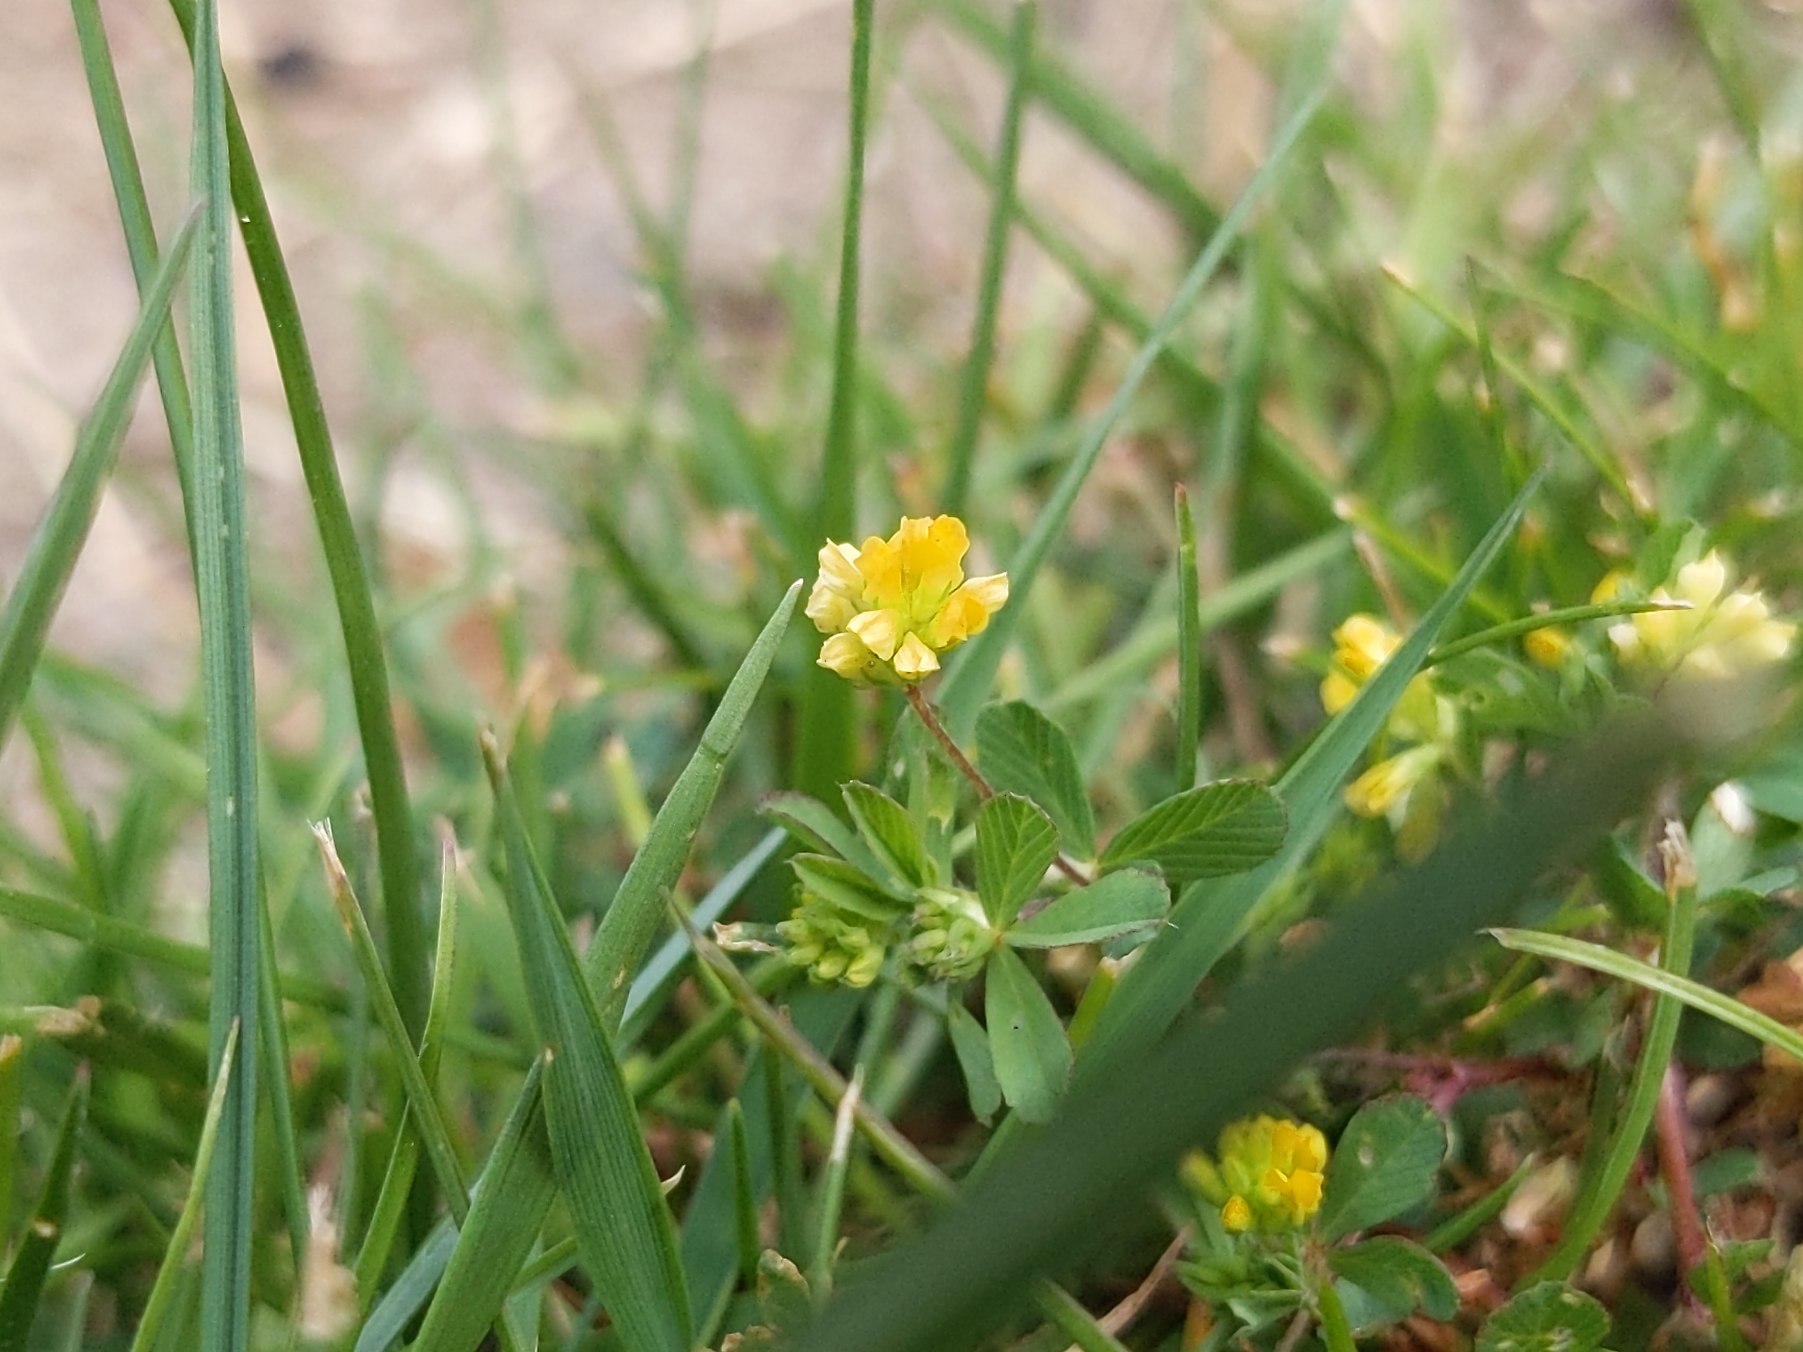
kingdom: Plantae
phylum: Tracheophyta
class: Magnoliopsida
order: Fabales
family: Fabaceae
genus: Trifolium
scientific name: Trifolium dubium
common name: Fin kløver
